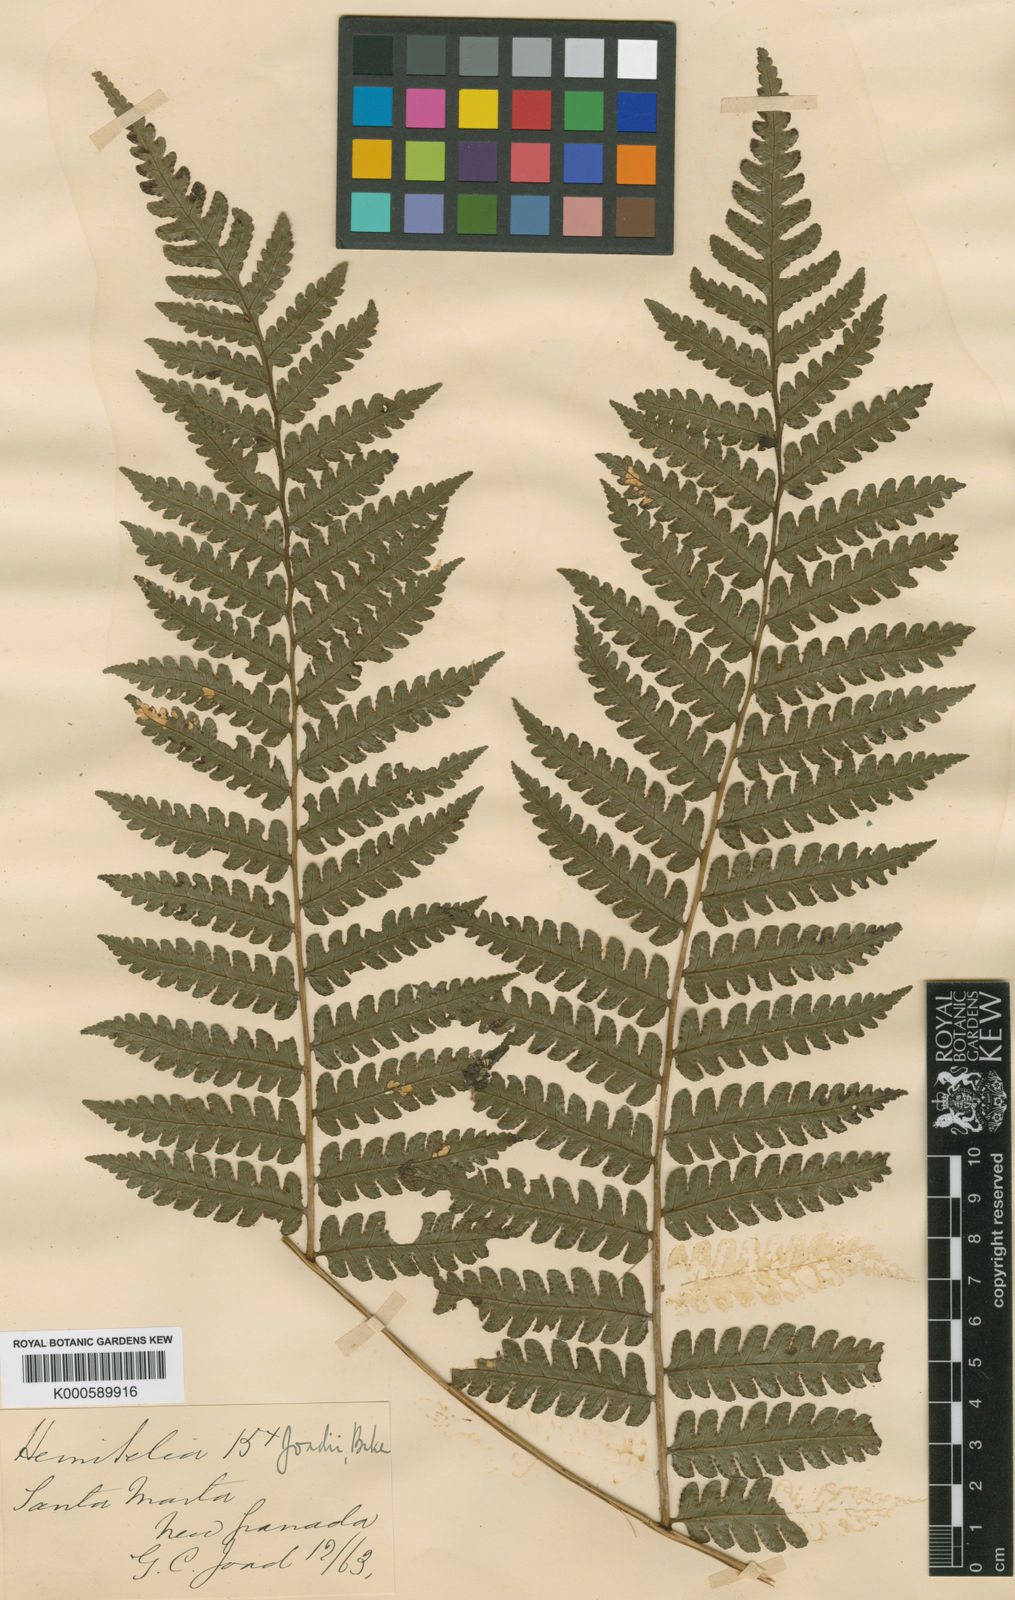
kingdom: Plantae
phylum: Tracheophyta
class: Polypodiopsida
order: Cyatheales
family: Cyatheaceae
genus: Cyathea
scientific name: Cyathea andina
